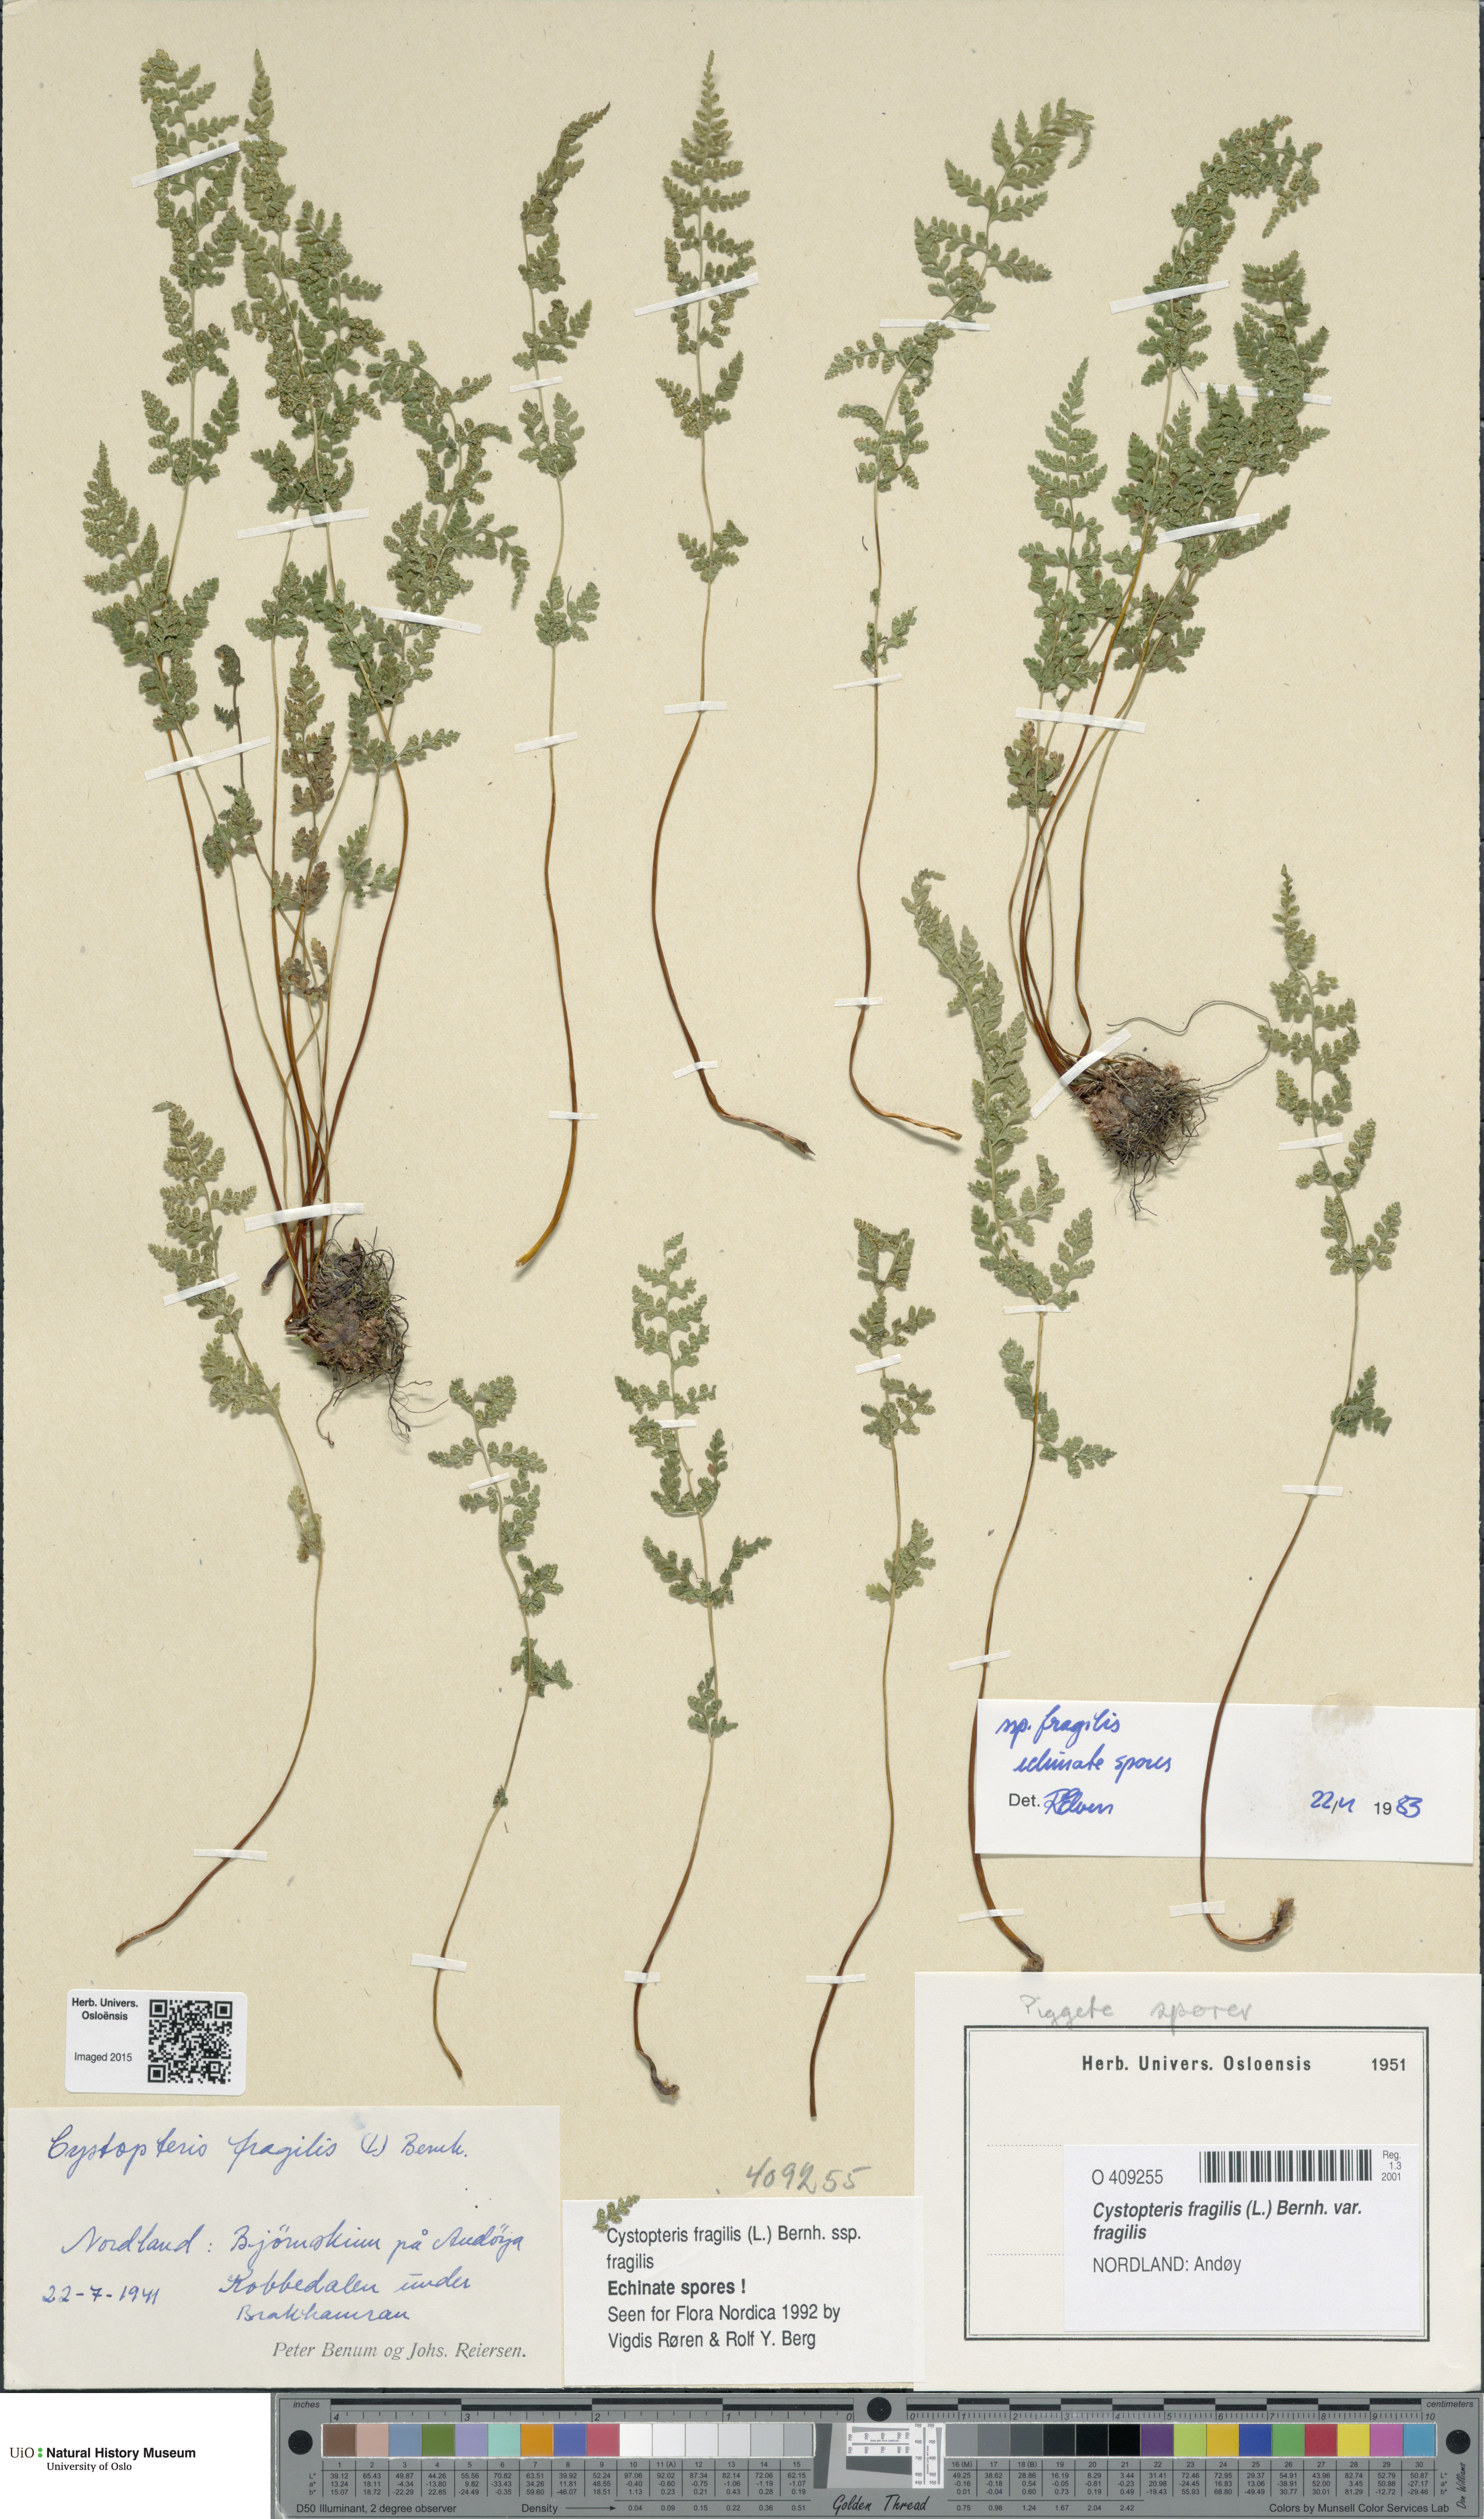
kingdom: Plantae
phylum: Tracheophyta
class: Polypodiopsida
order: Polypodiales
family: Cystopteridaceae
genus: Cystopteris
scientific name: Cystopteris fragilis
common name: Brittle bladder fern
